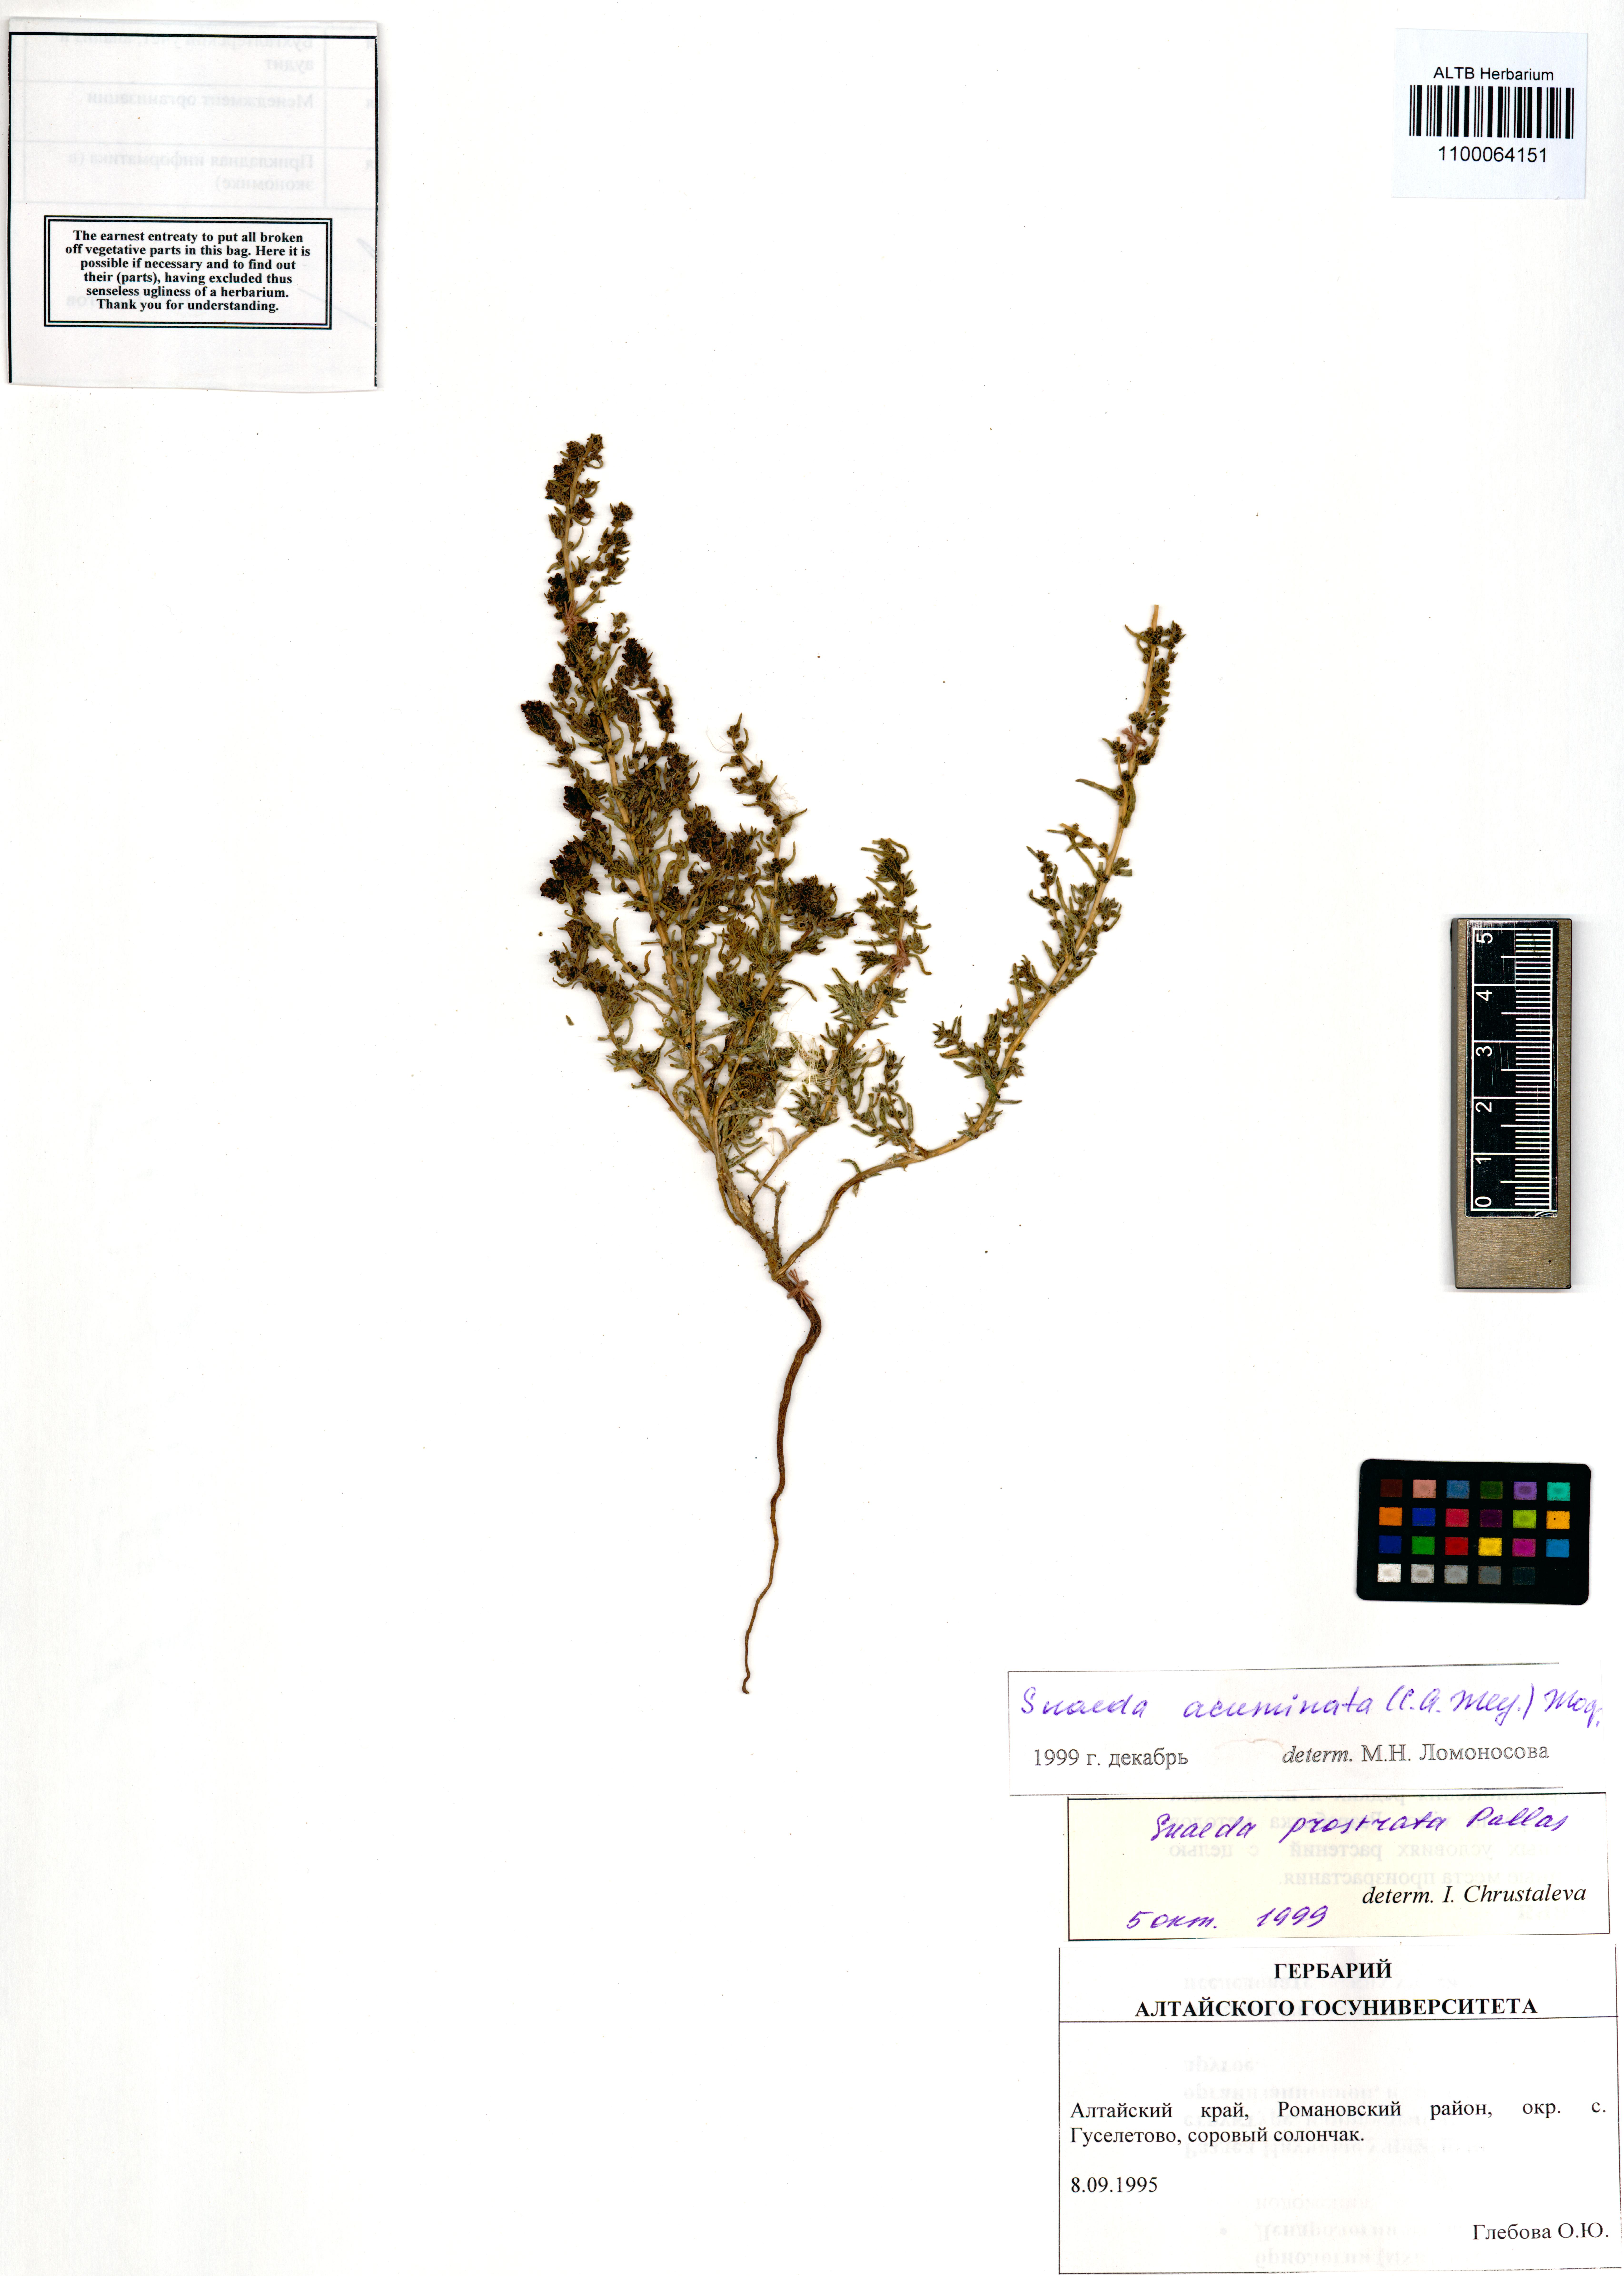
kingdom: Plantae
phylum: Tracheophyta
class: Magnoliopsida
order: Caryophyllales
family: Amaranthaceae
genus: Suaeda
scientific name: Suaeda acuminata
